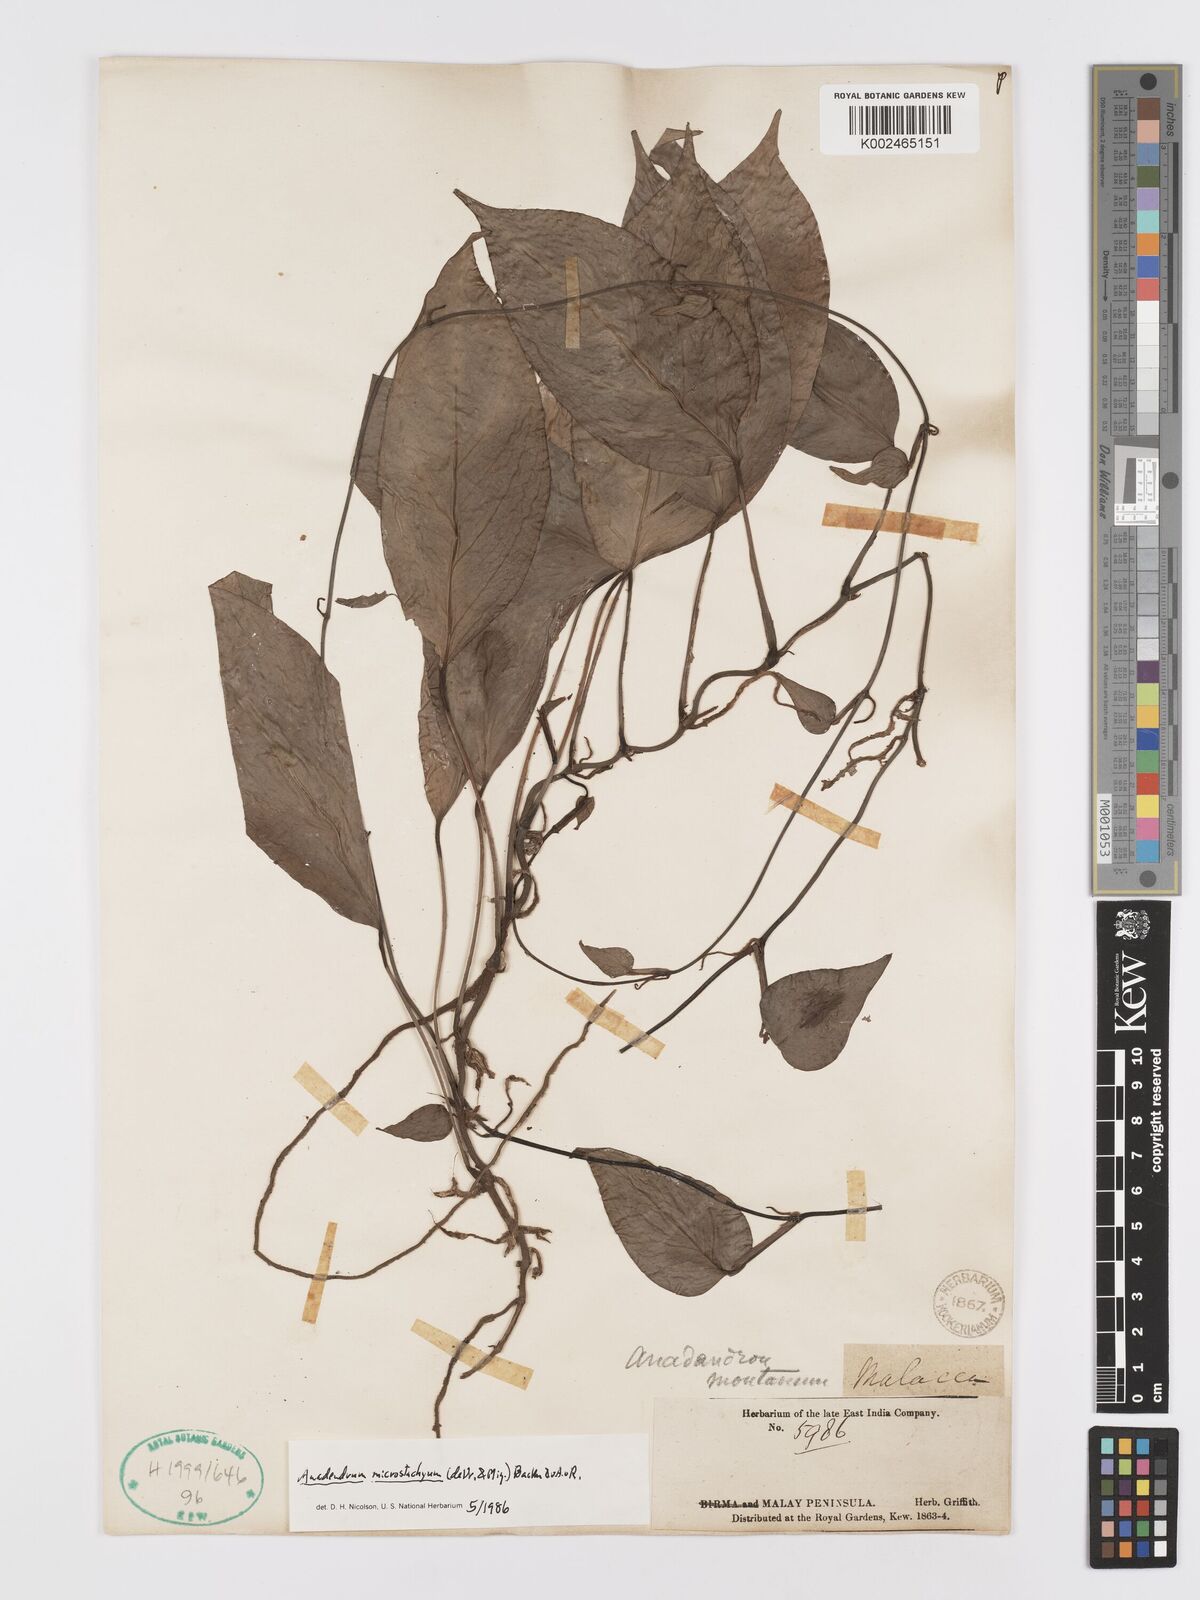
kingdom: Plantae
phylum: Tracheophyta
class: Liliopsida
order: Alismatales
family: Araceae
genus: Anadendrum
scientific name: Anadendrum microstachyum
